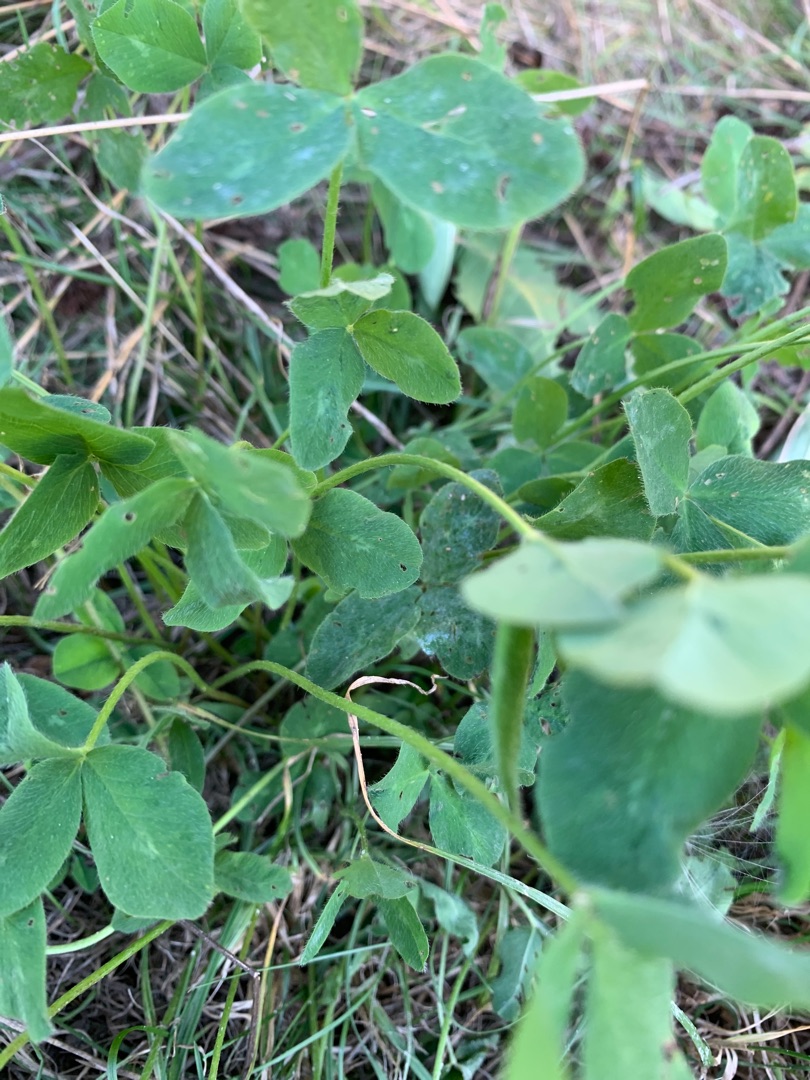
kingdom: Plantae
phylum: Tracheophyta
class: Magnoliopsida
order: Fabales
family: Fabaceae
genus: Trifolium
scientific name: Trifolium pratense
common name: Rød-kløver
